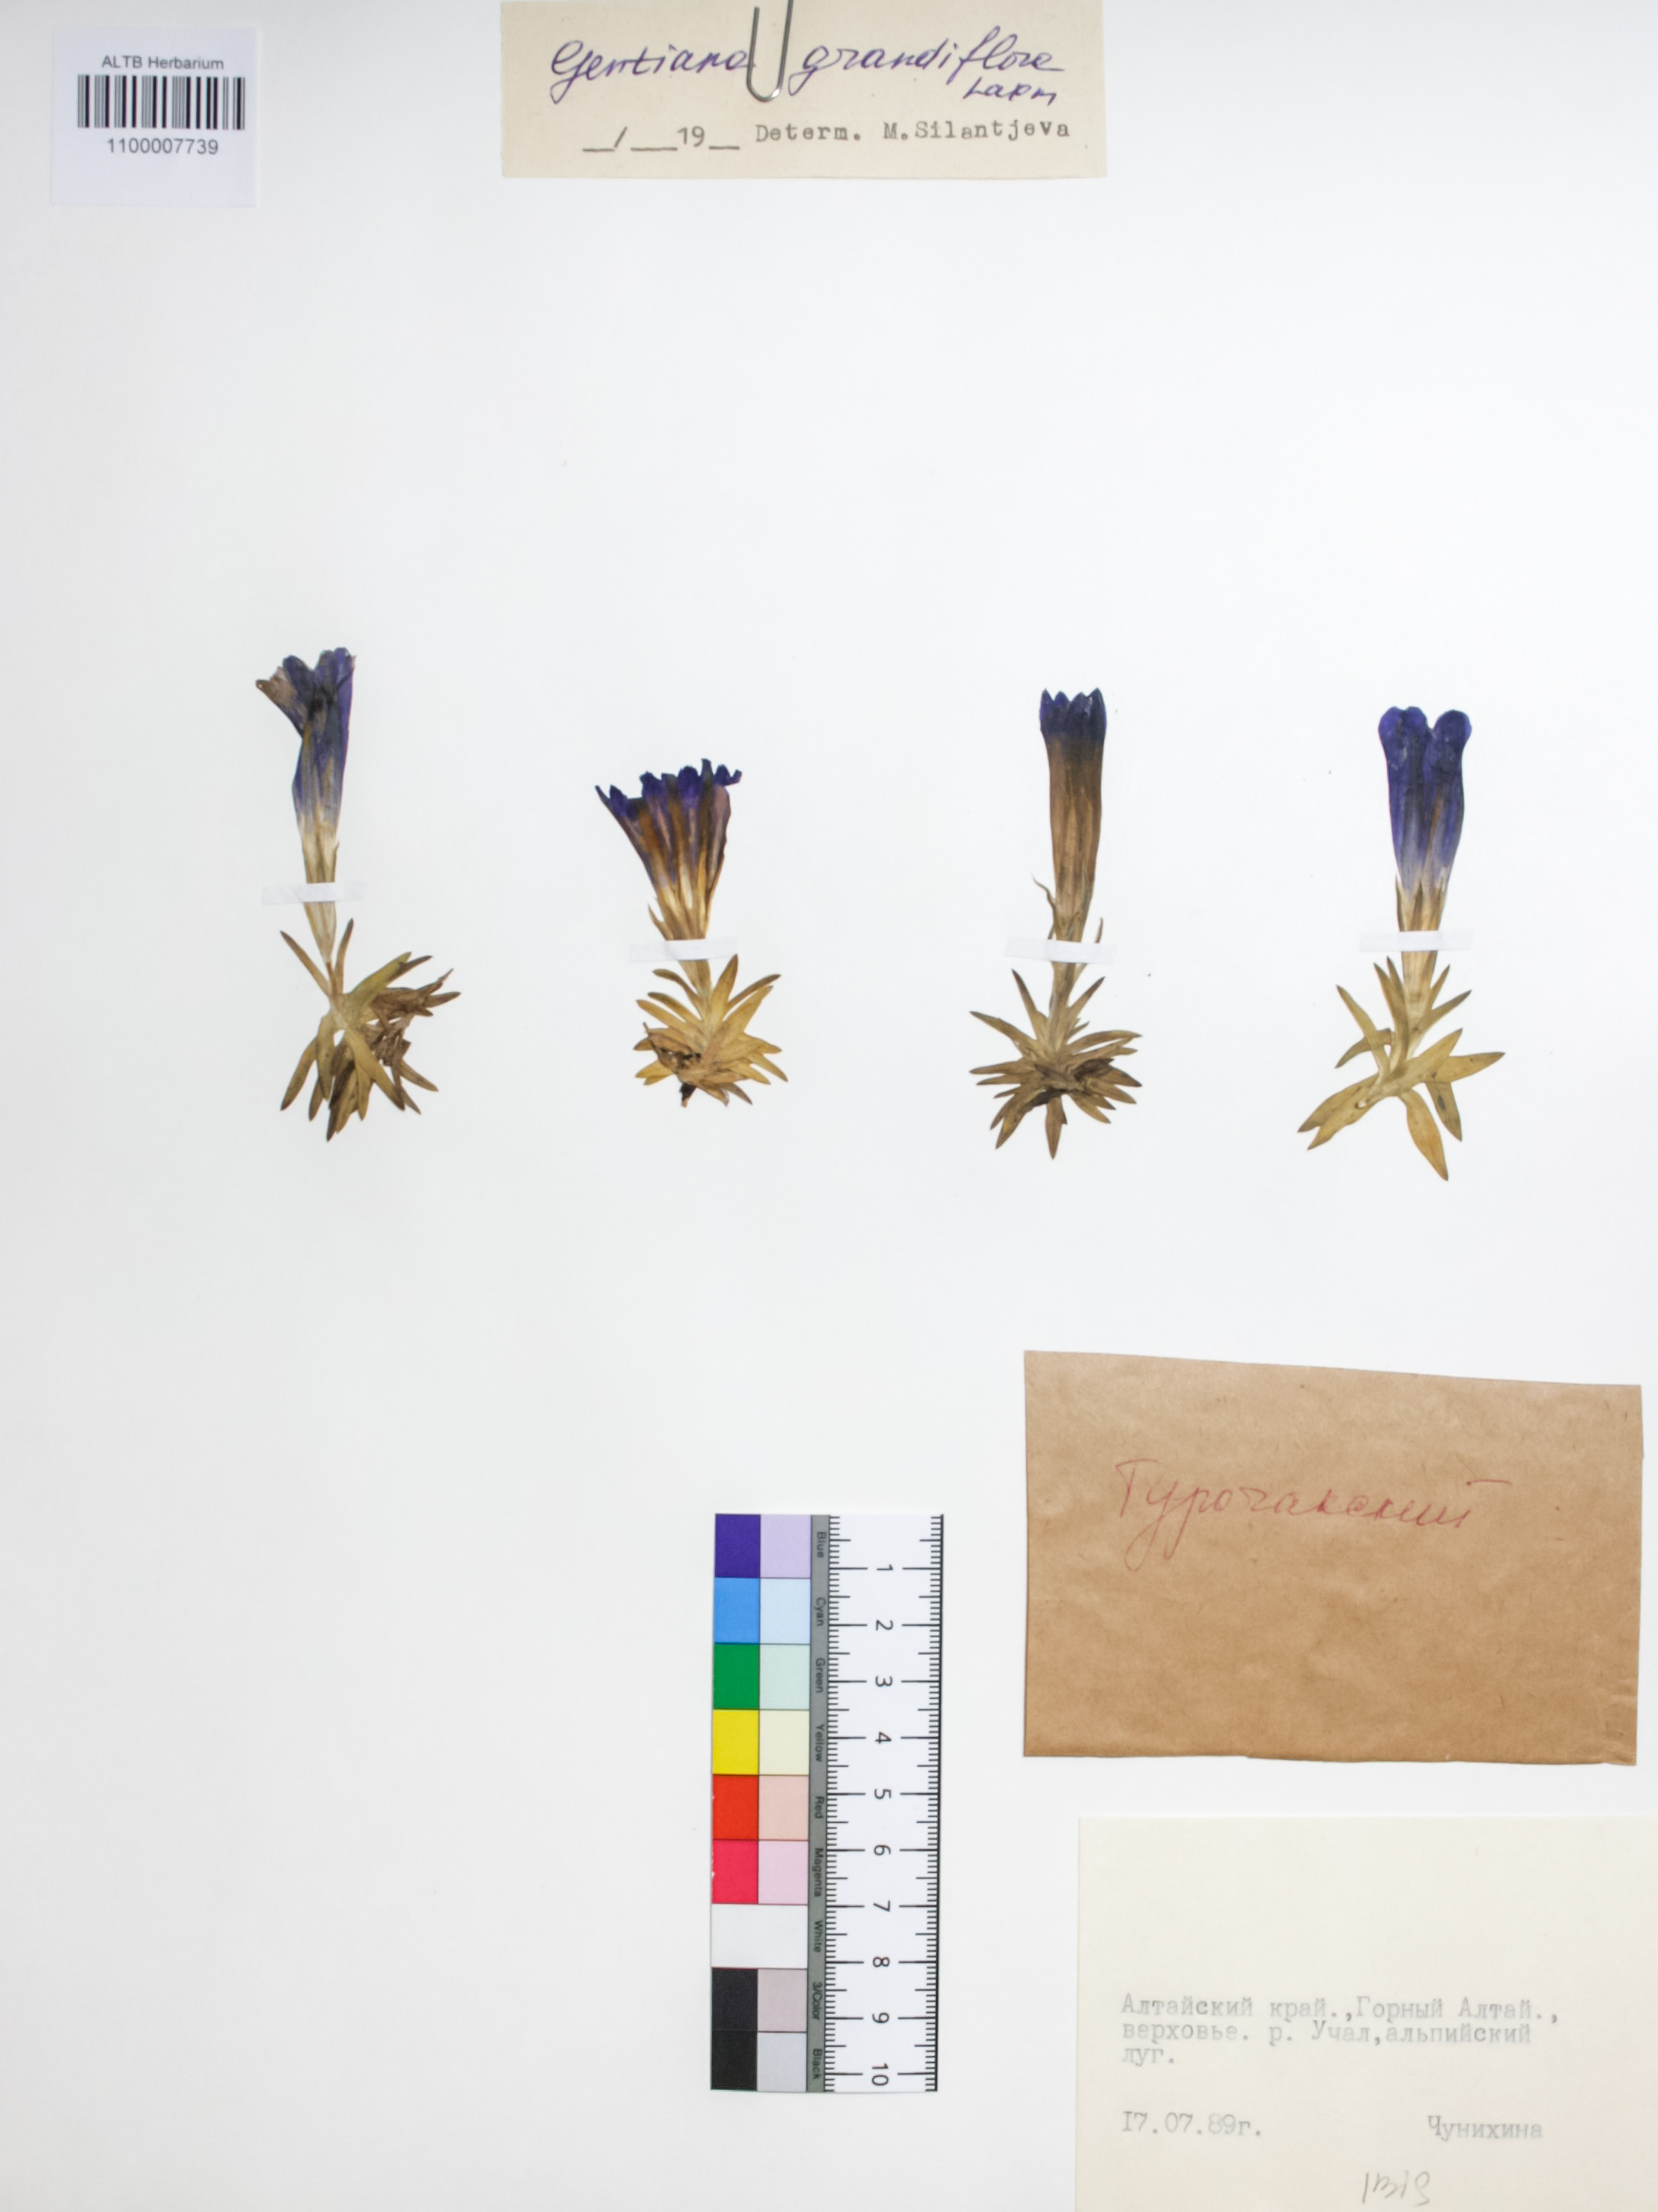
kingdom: Plantae
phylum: Tracheophyta
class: Magnoliopsida
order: Gentianales
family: Gentianaceae
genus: Gentiana
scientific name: Gentiana grandiflora
